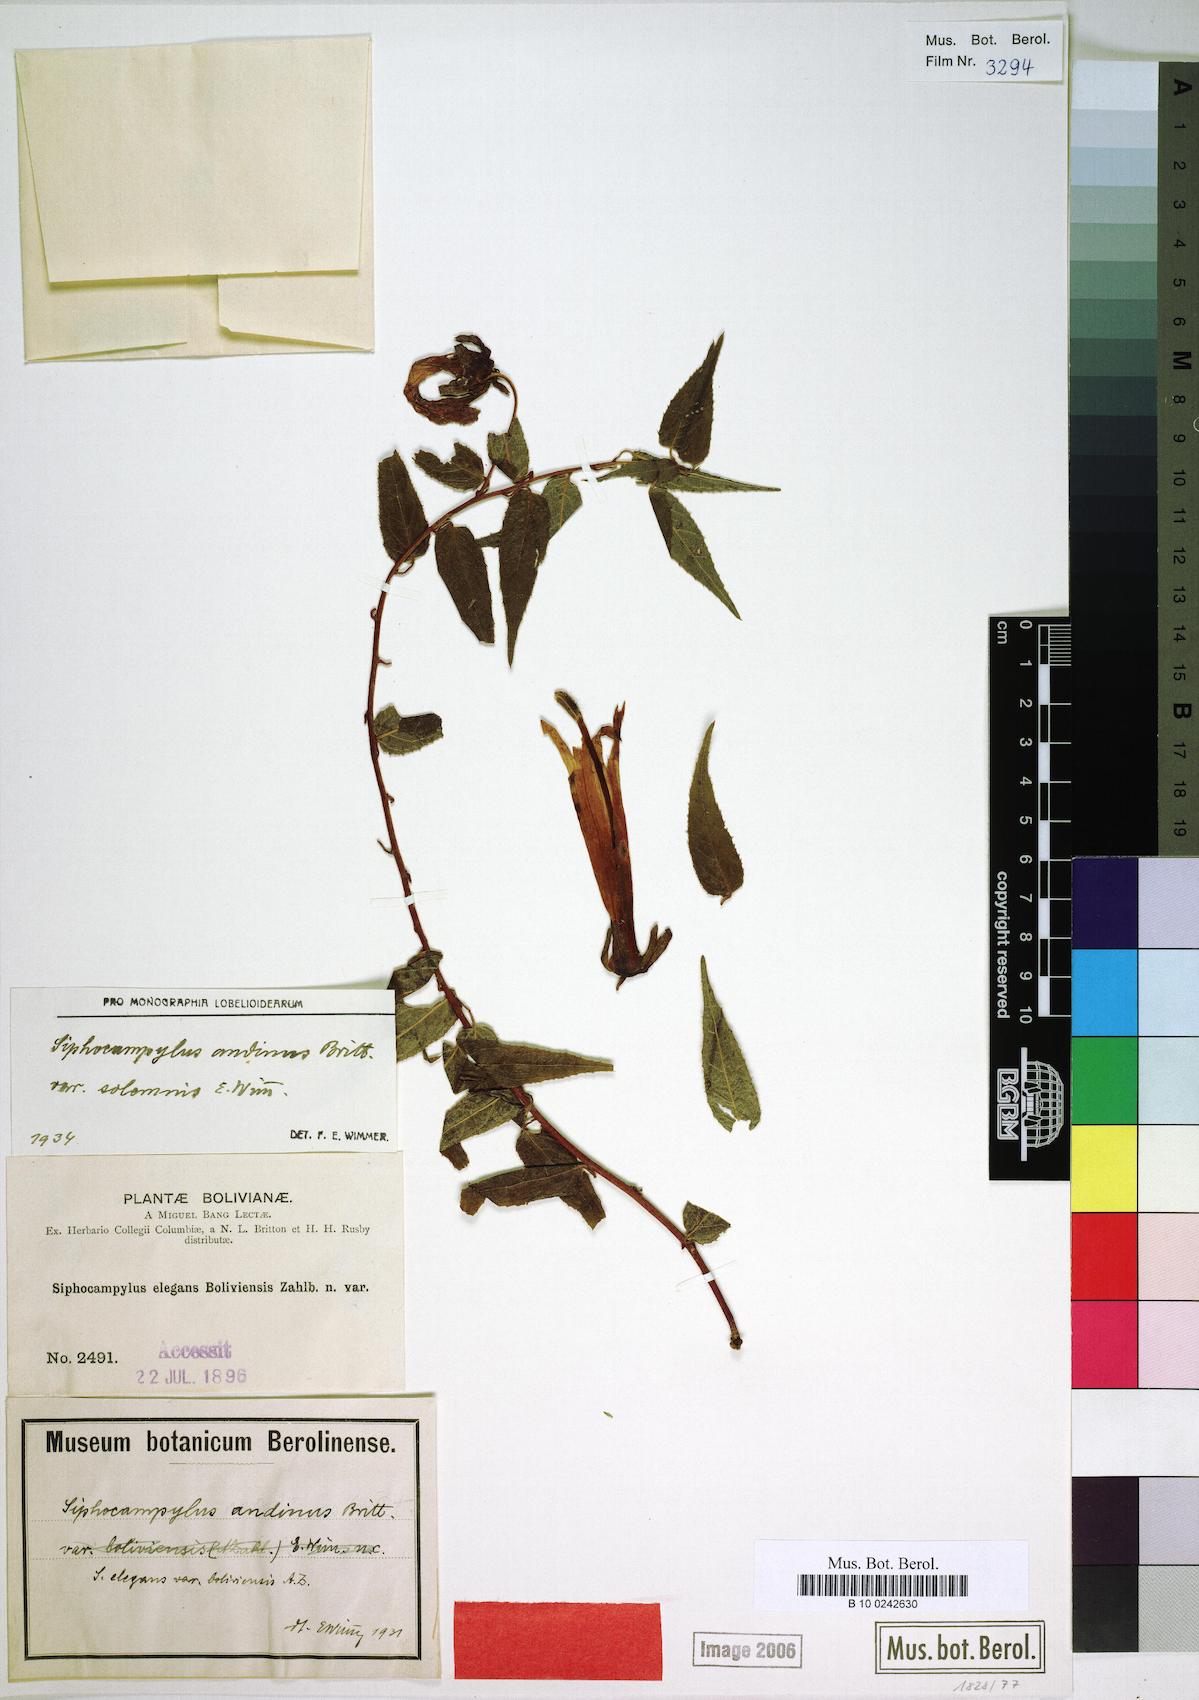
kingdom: Plantae
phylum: Tracheophyta
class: Magnoliopsida
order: Asterales
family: Campanulaceae
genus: Siphocampylus
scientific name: Siphocampylus andinus
